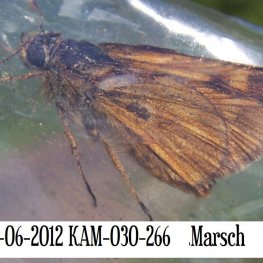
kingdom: Animalia
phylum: Arthropoda
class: Insecta
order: Lepidoptera
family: Hesperiidae
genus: Polites
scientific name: Polites
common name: Long Dash Skipper
